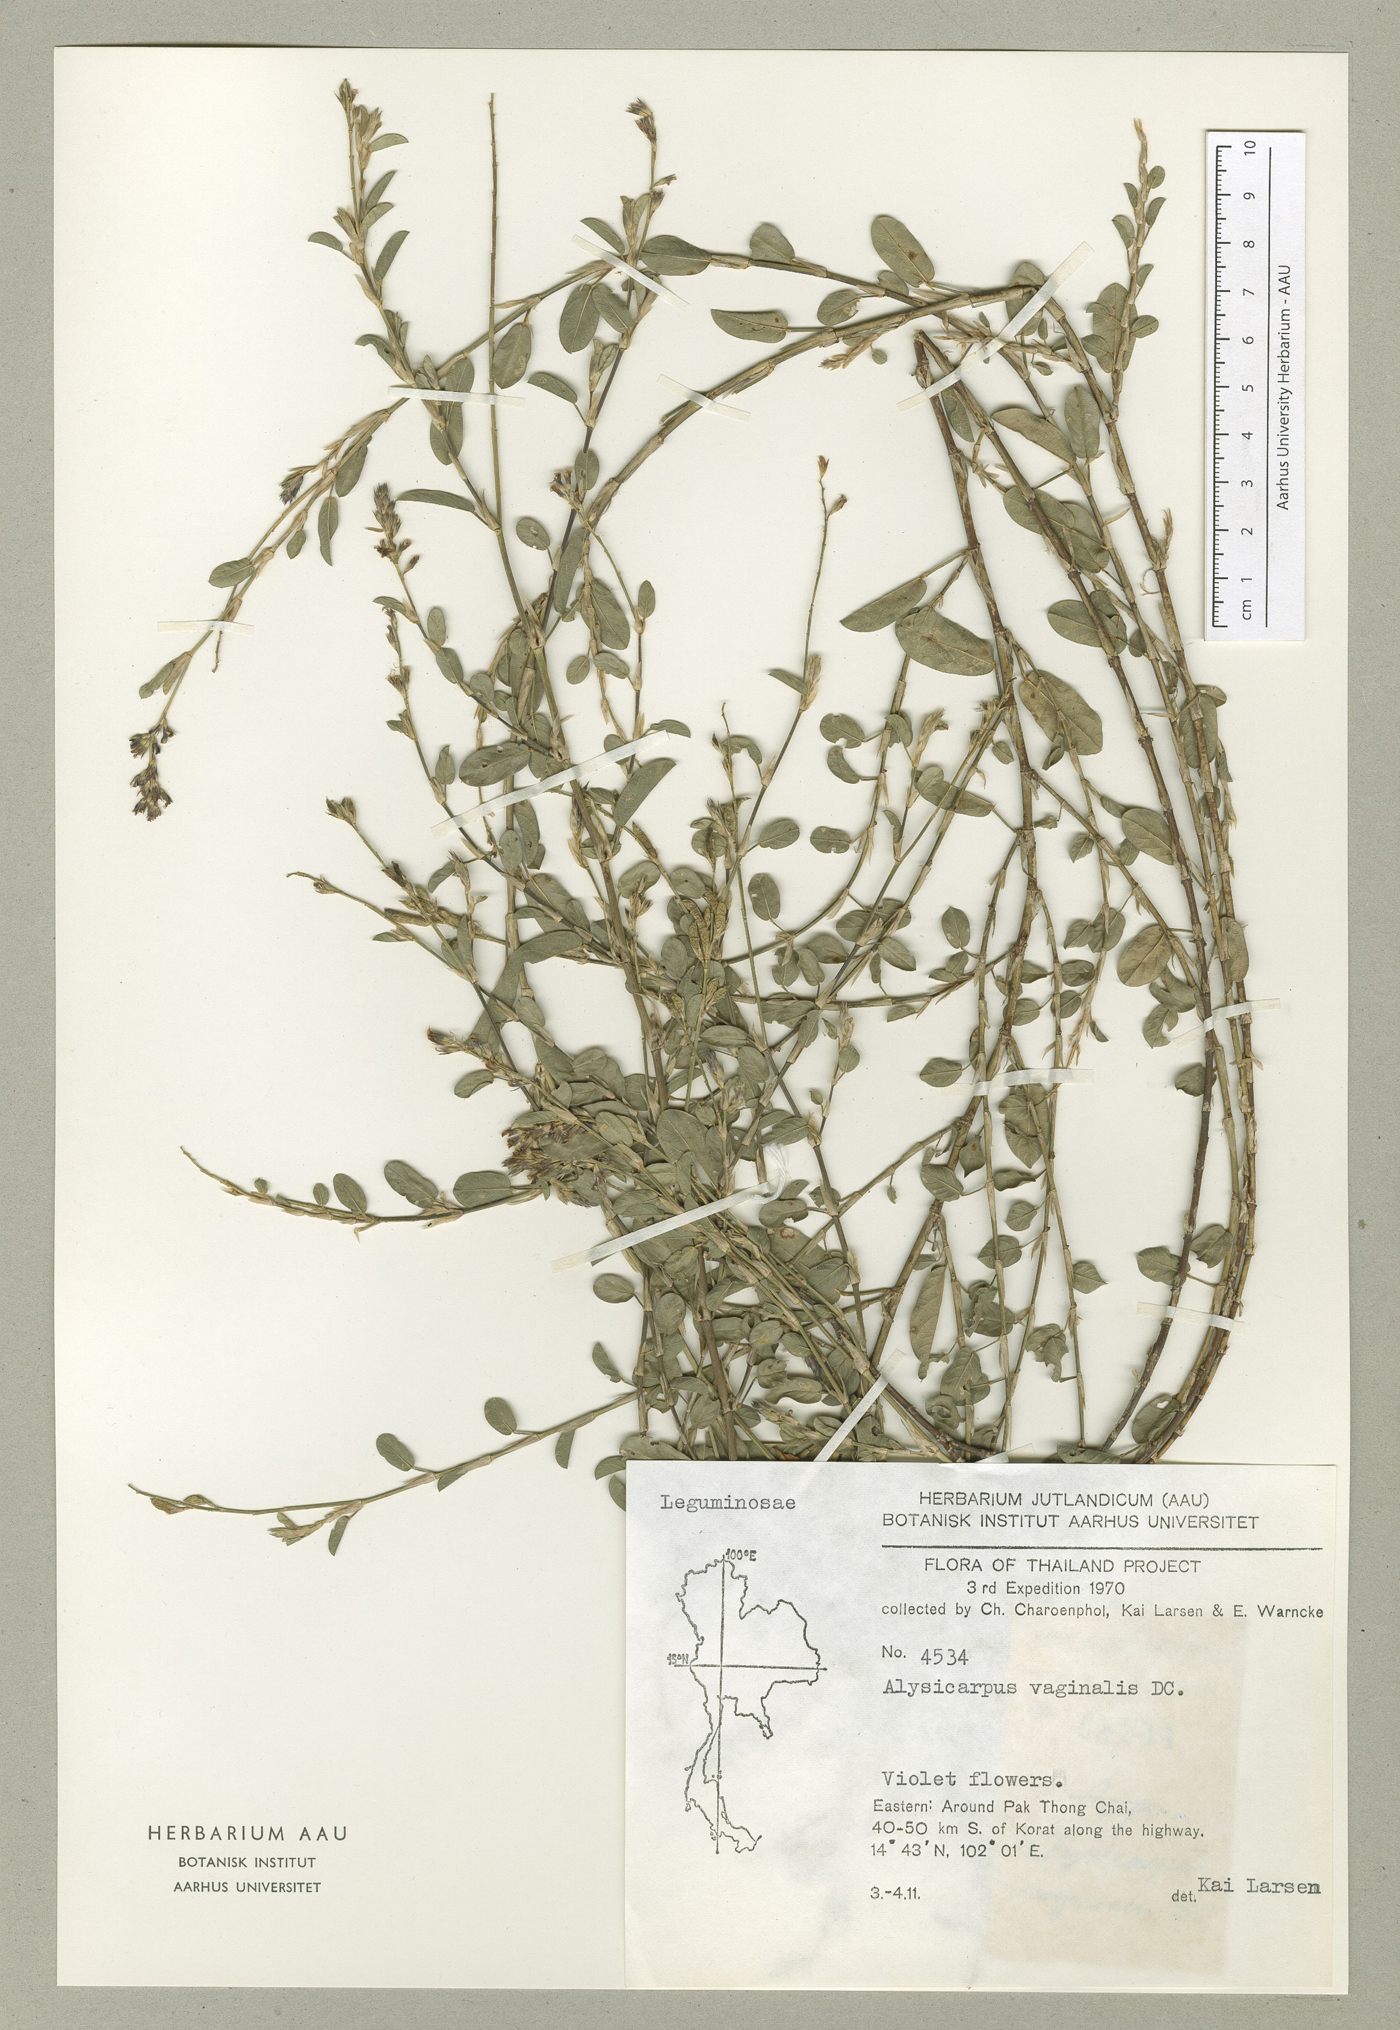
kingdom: Plantae
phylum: Tracheophyta
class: Magnoliopsida
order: Fabales
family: Fabaceae
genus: Alysicarpus
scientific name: Alysicarpus vaginalis
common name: White moneywort
